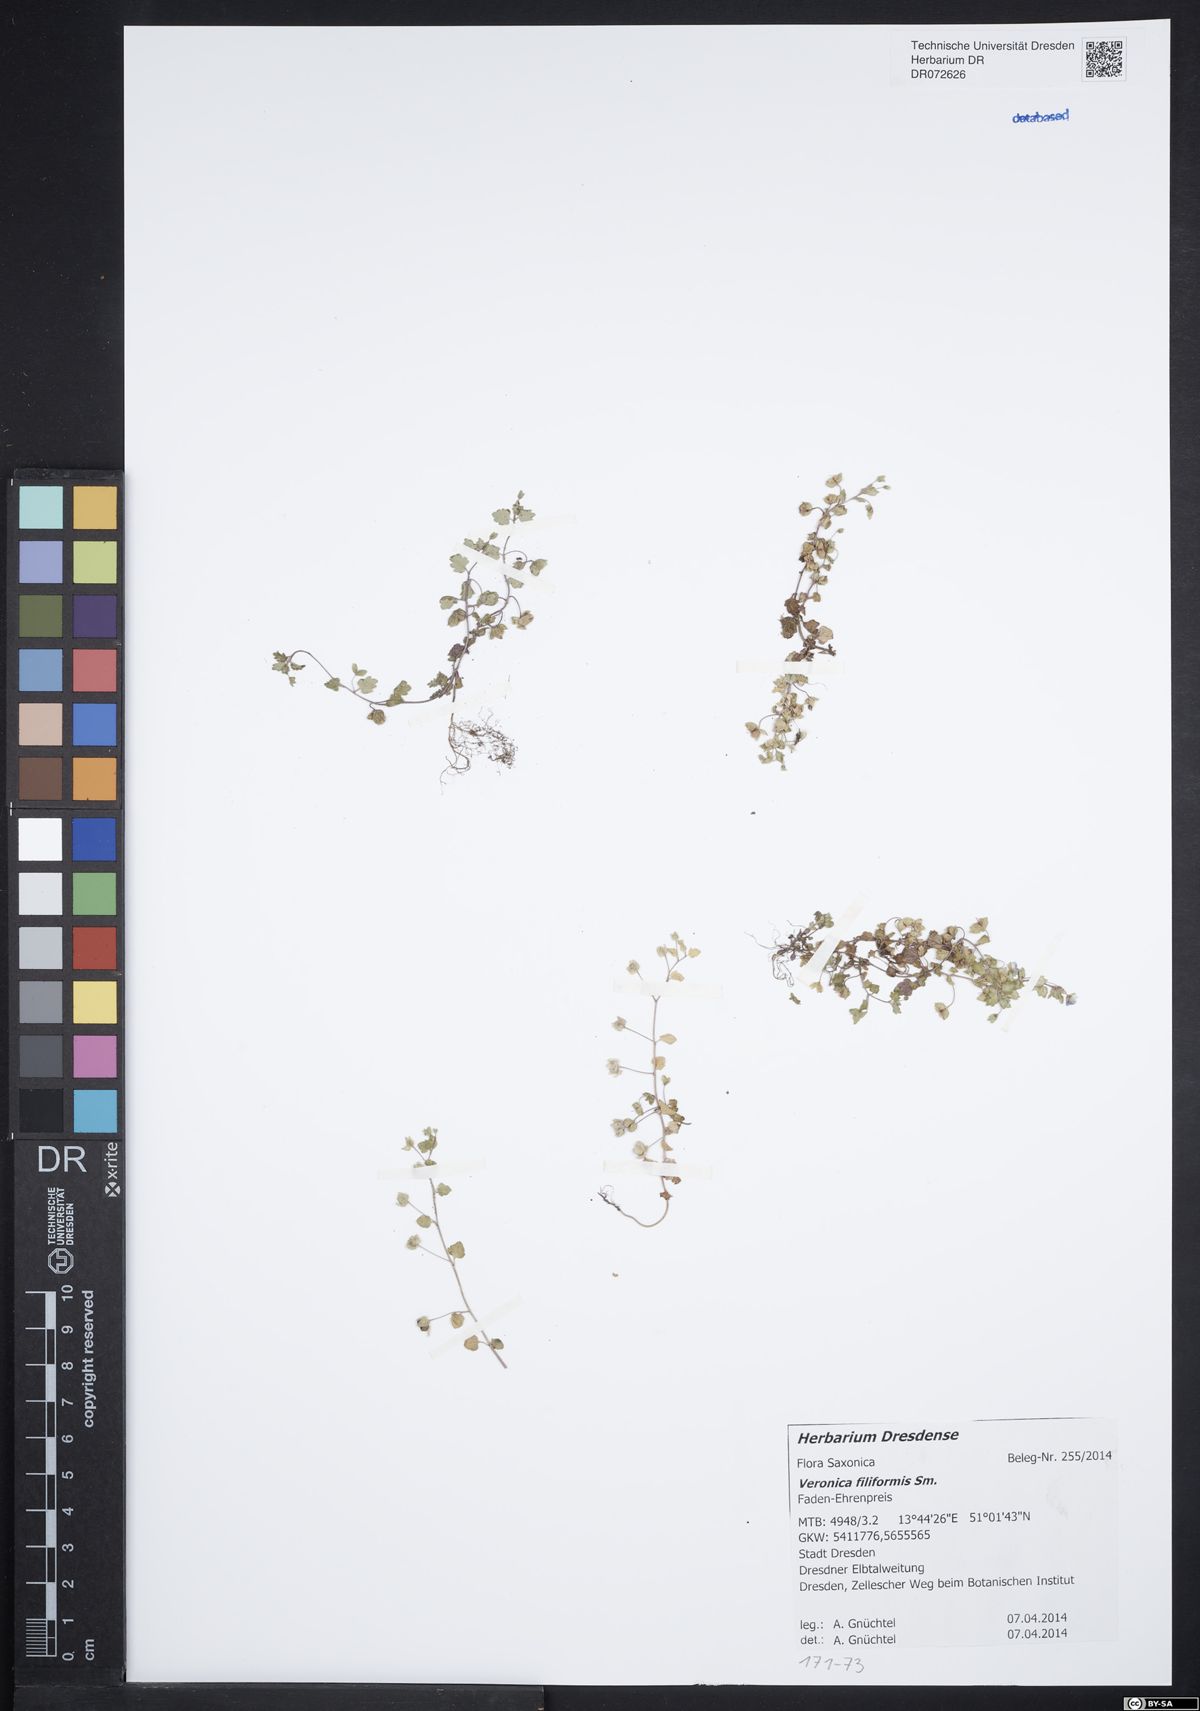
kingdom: Plantae
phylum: Tracheophyta
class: Magnoliopsida
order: Lamiales
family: Plantaginaceae
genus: Veronica
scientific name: Veronica filiformis
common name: Slender speedwell
